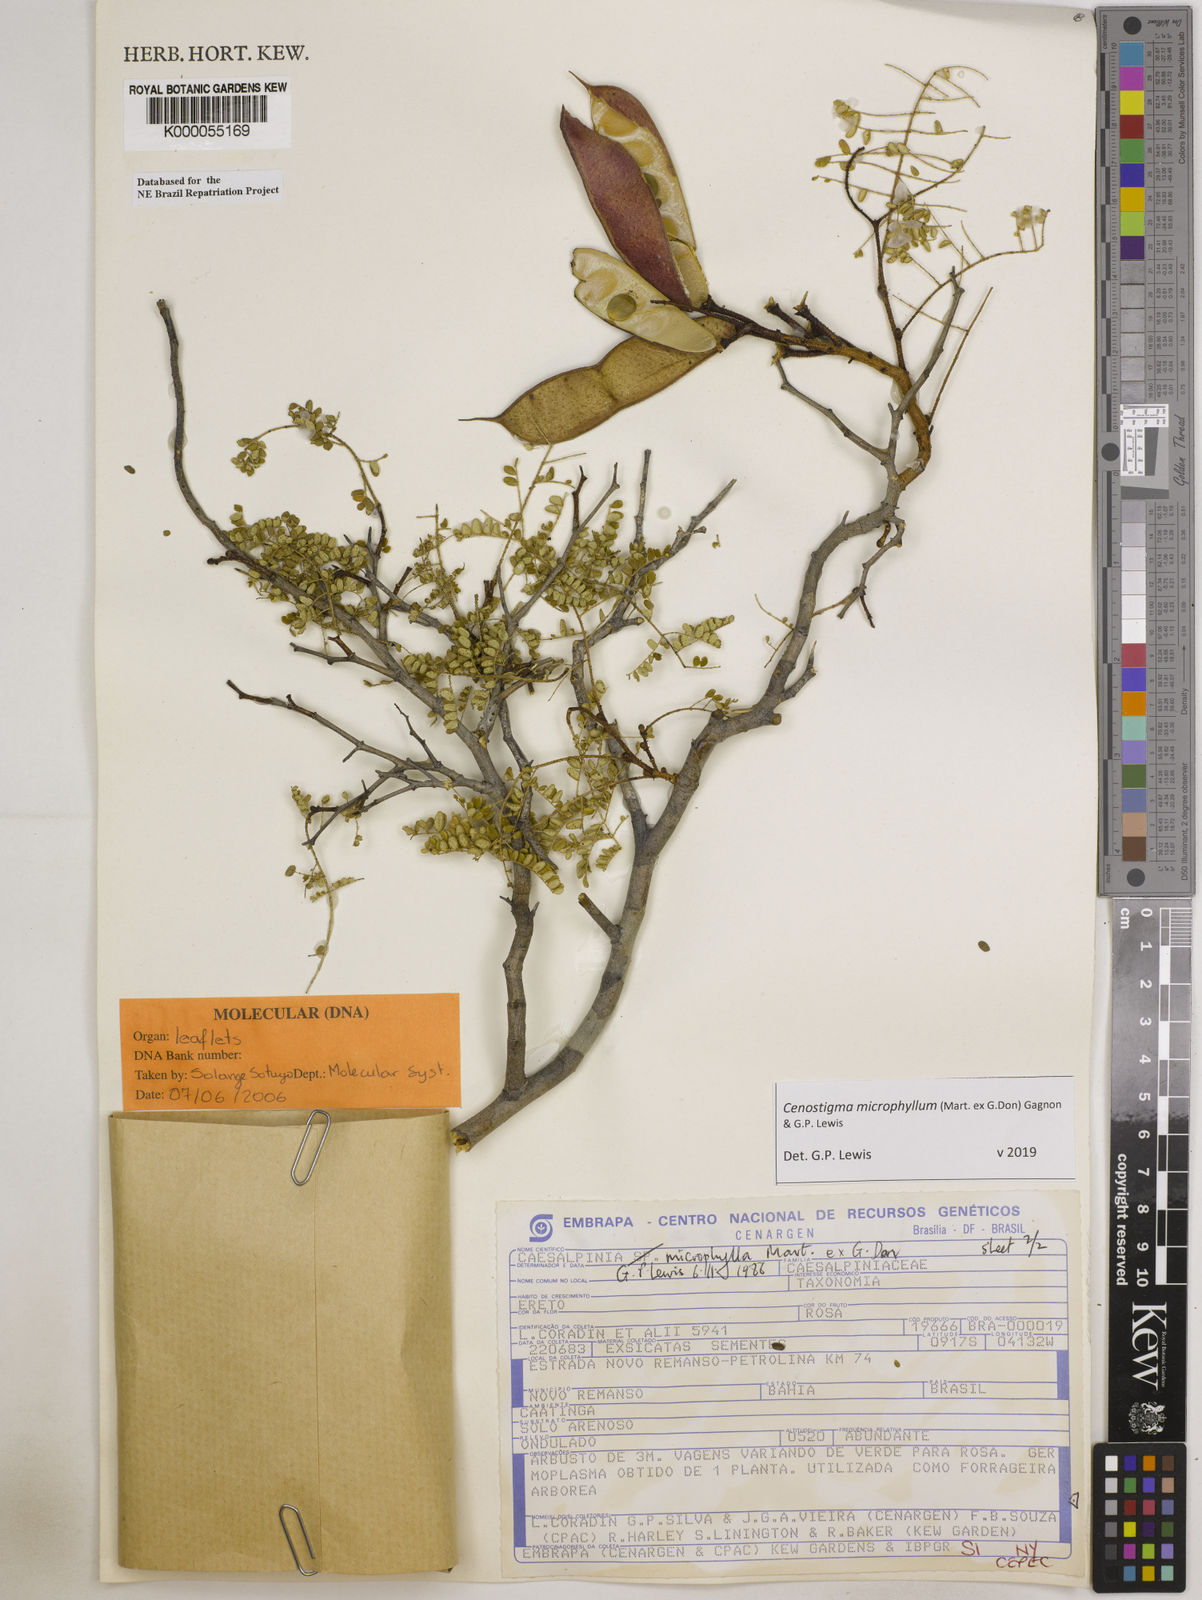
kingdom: Plantae
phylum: Tracheophyta
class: Magnoliopsida
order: Fabales
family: Fabaceae
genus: Cenostigma
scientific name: Cenostigma microphyllum
